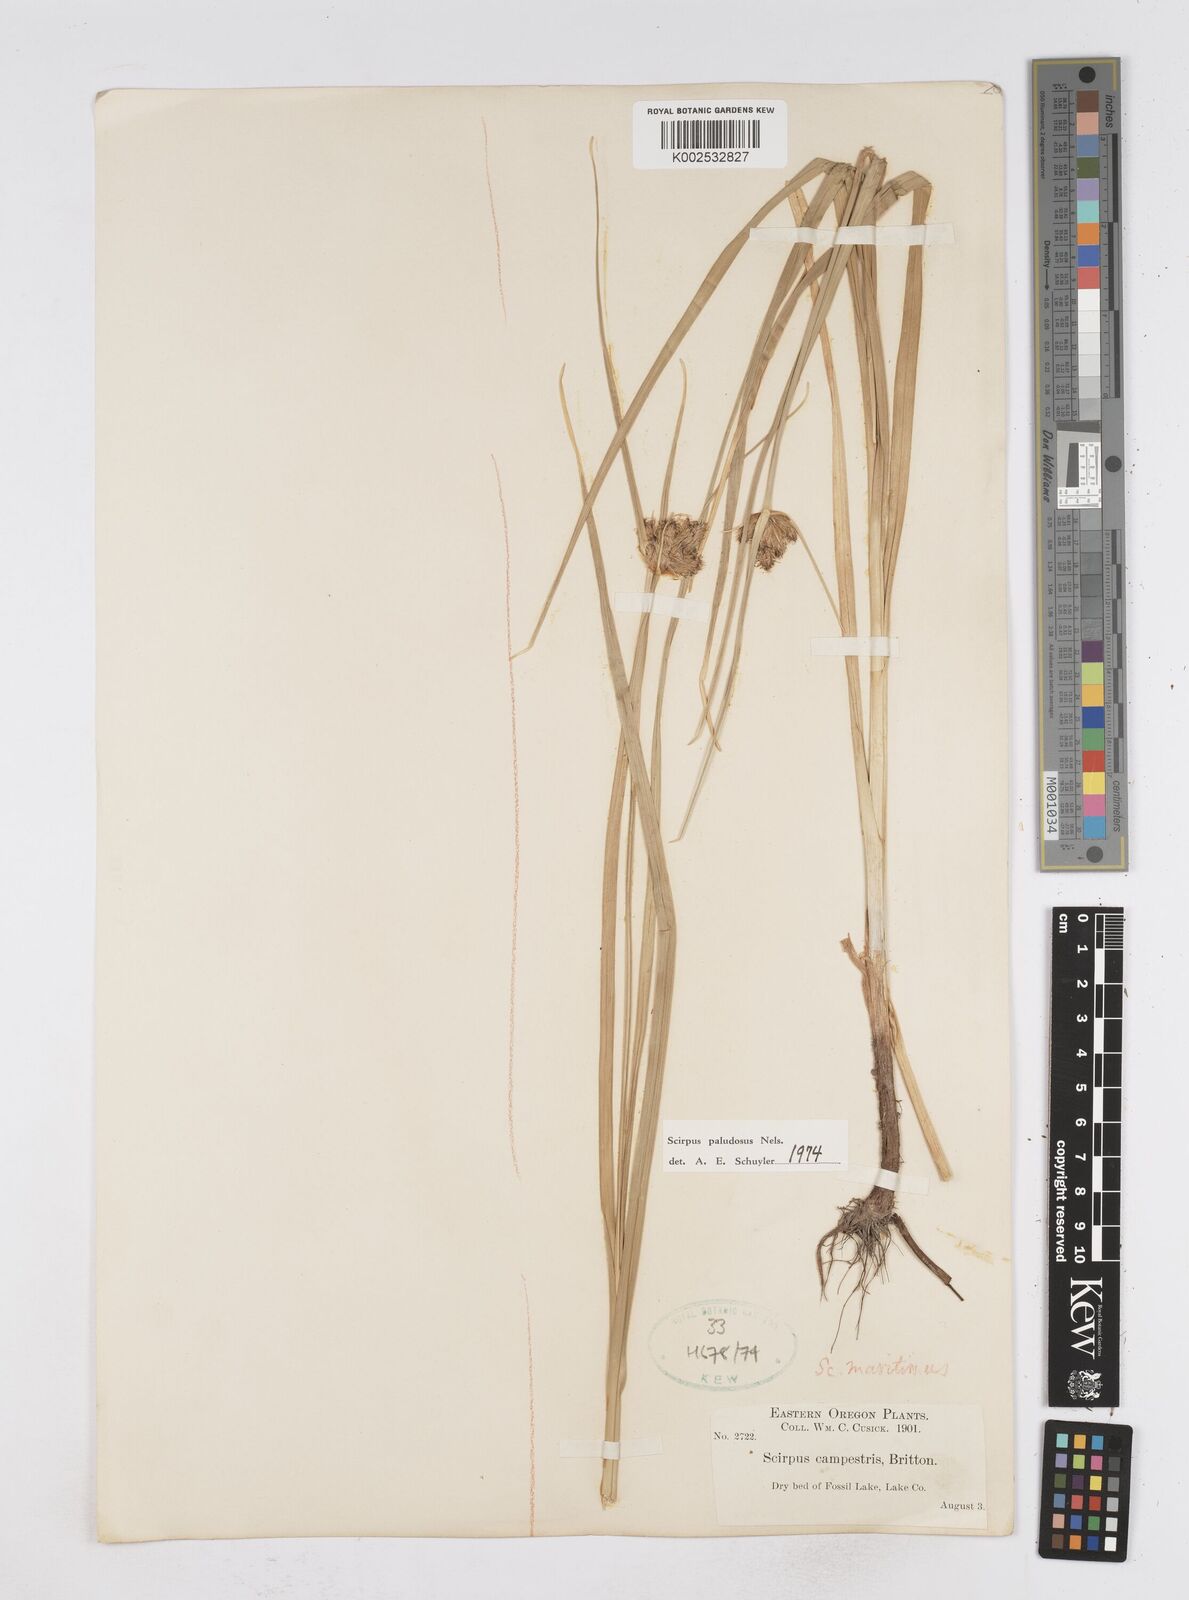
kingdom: Plantae
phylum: Tracheophyta
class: Liliopsida
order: Poales
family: Cyperaceae
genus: Bolboschoenus
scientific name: Bolboschoenus maritimus
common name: Sea club-rush
